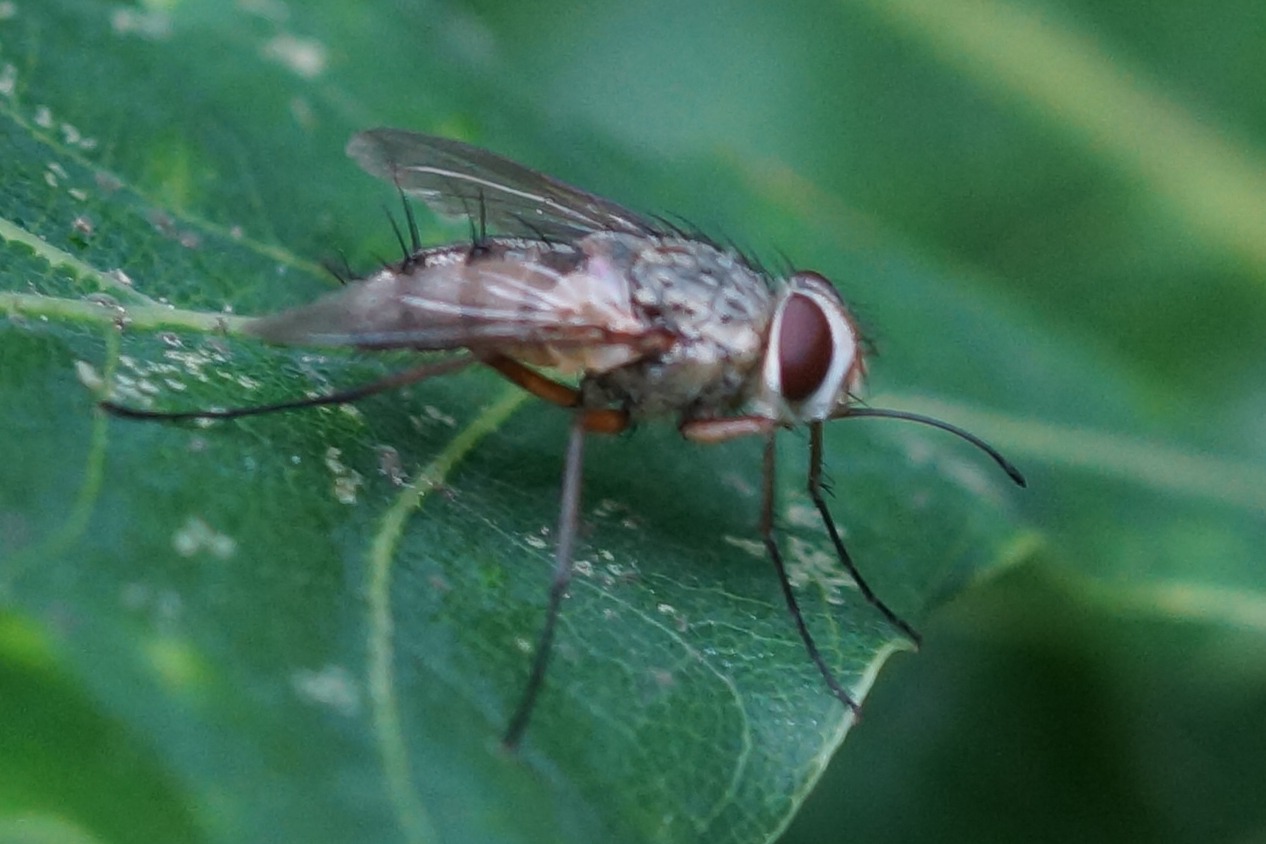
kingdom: Animalia
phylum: Arthropoda
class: Insecta
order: Diptera
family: Tachinidae
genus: Prosena
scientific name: Prosena siberita
